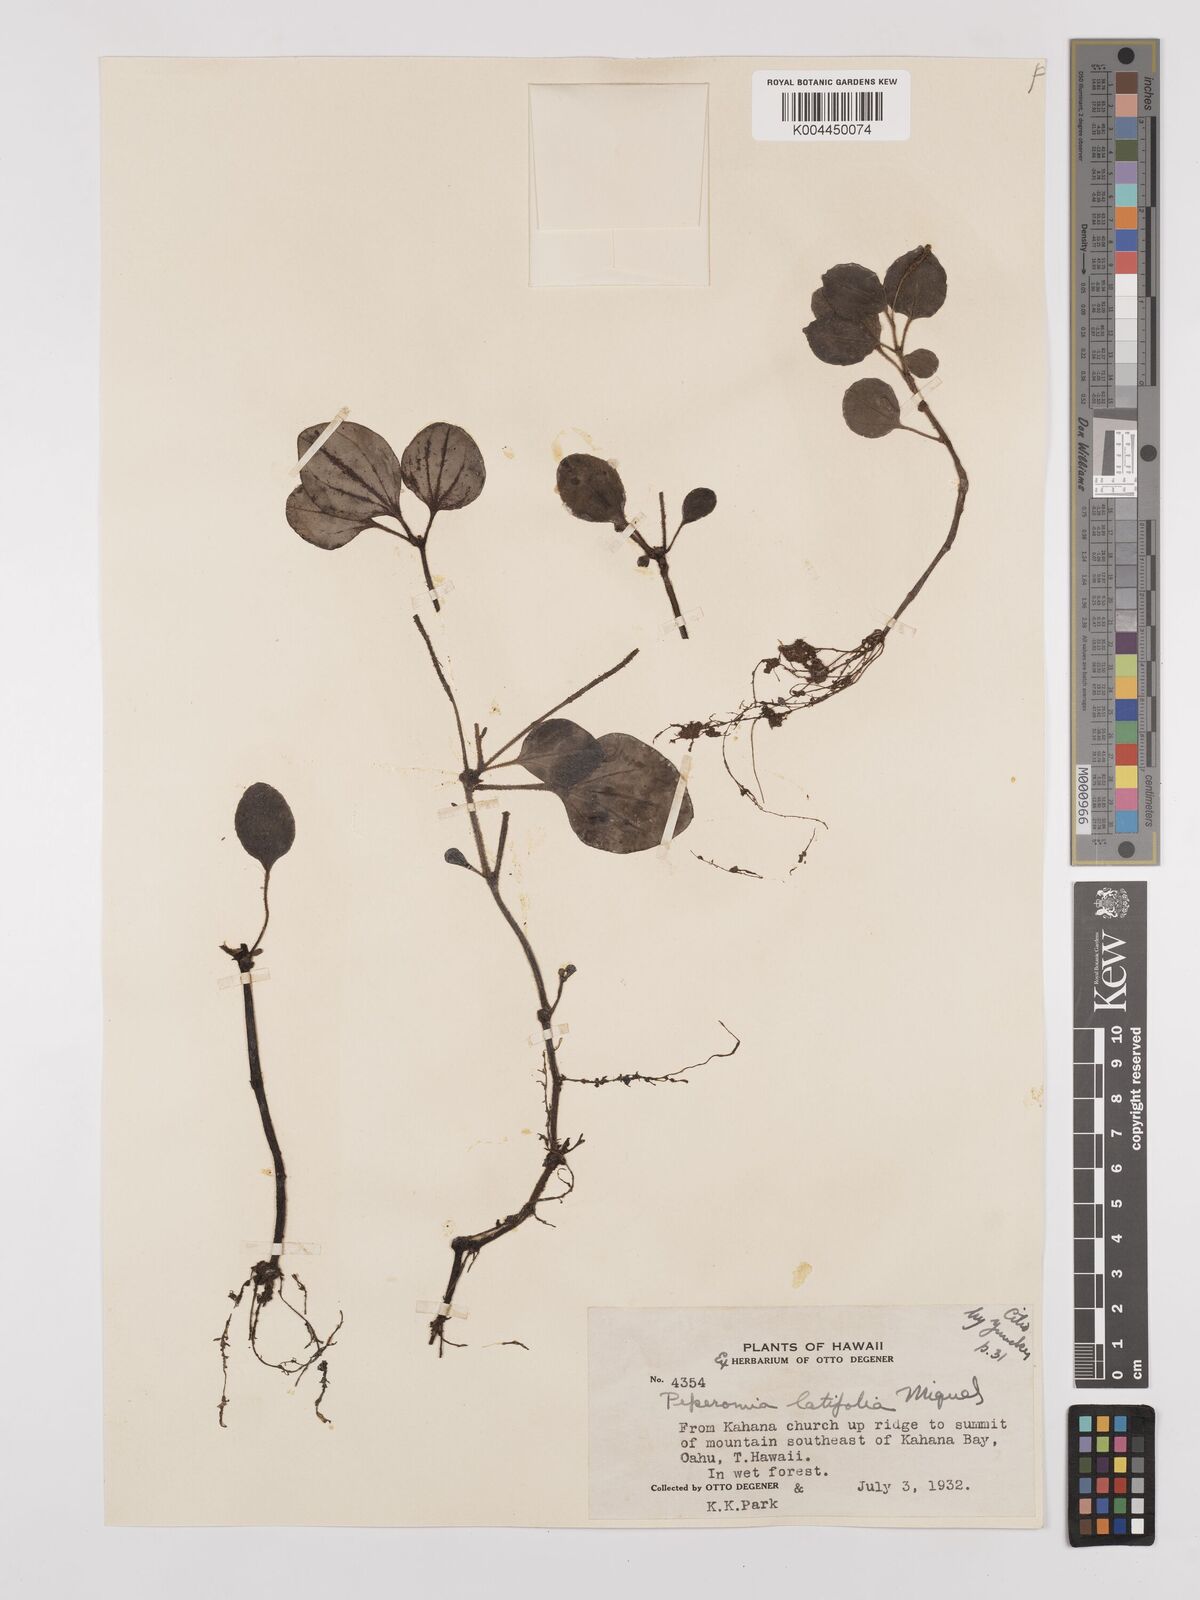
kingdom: Plantae
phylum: Tracheophyta
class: Magnoliopsida
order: Piperales
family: Piperaceae
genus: Peperomia
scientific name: Peperomia latifolia
